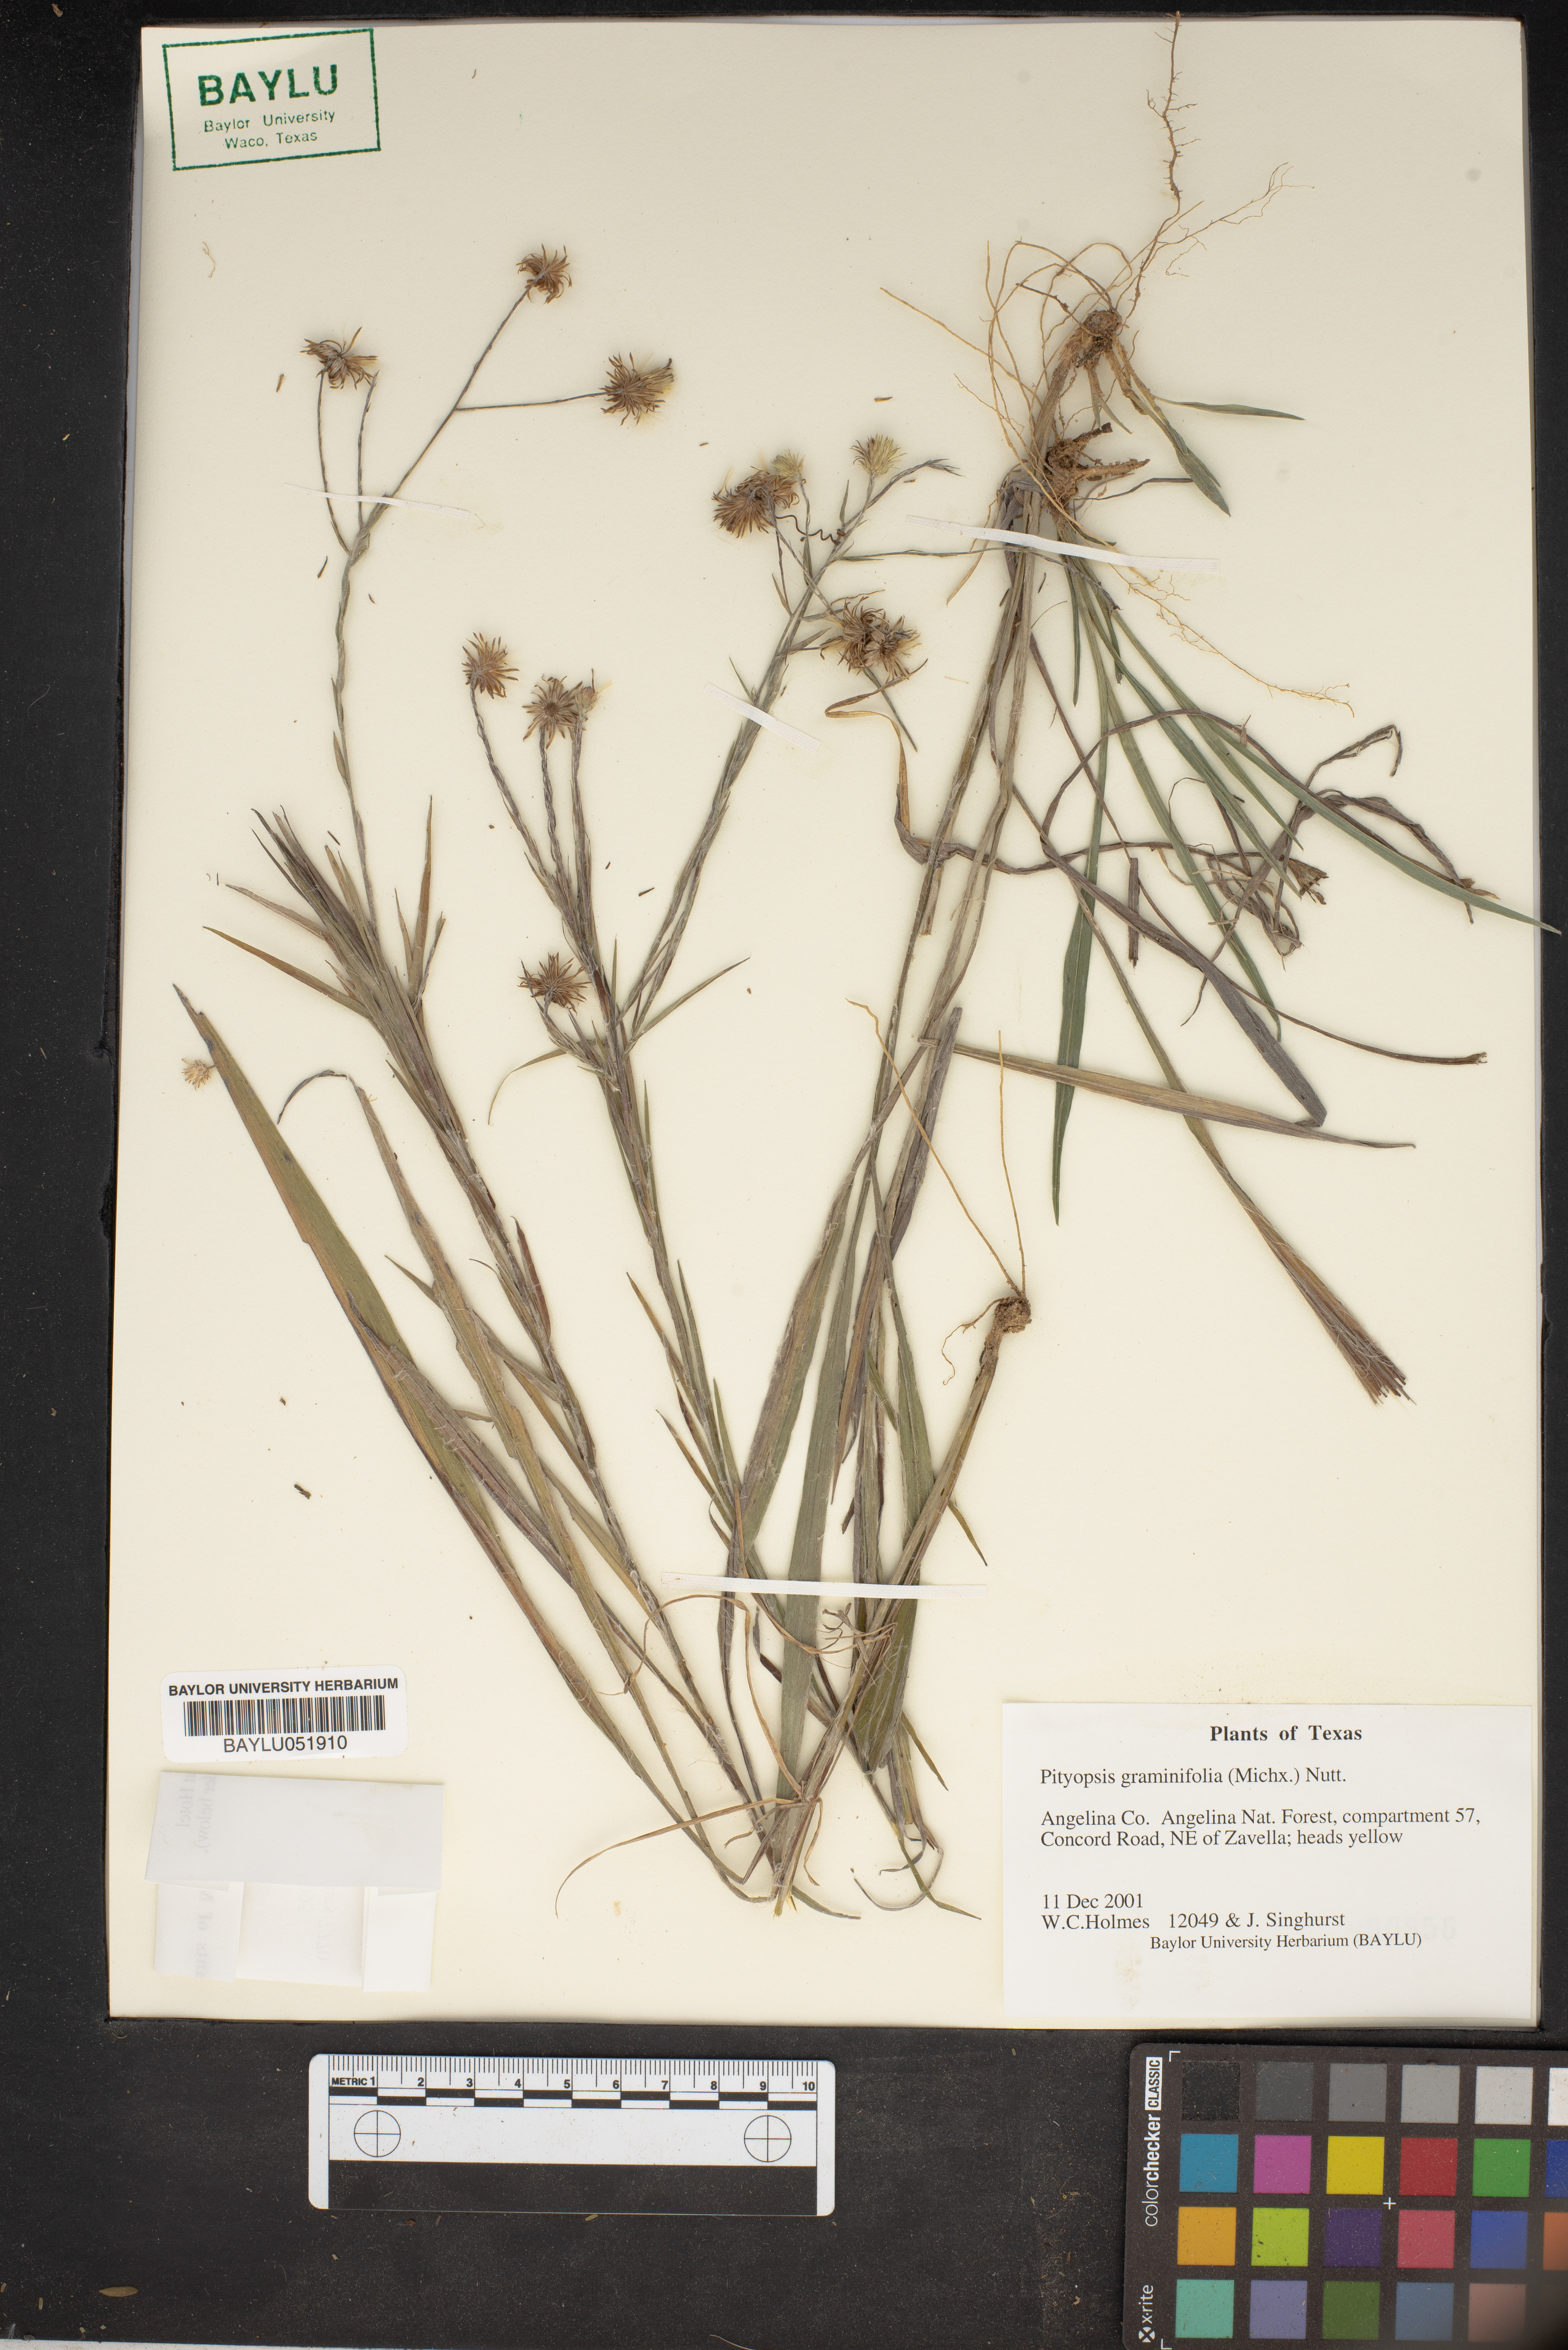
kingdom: Plantae
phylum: Tracheophyta
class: Magnoliopsida
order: Asterales
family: Asteraceae
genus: Pityopsis
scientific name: Pityopsis graminifolia
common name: Grass-leaf golden-aster
